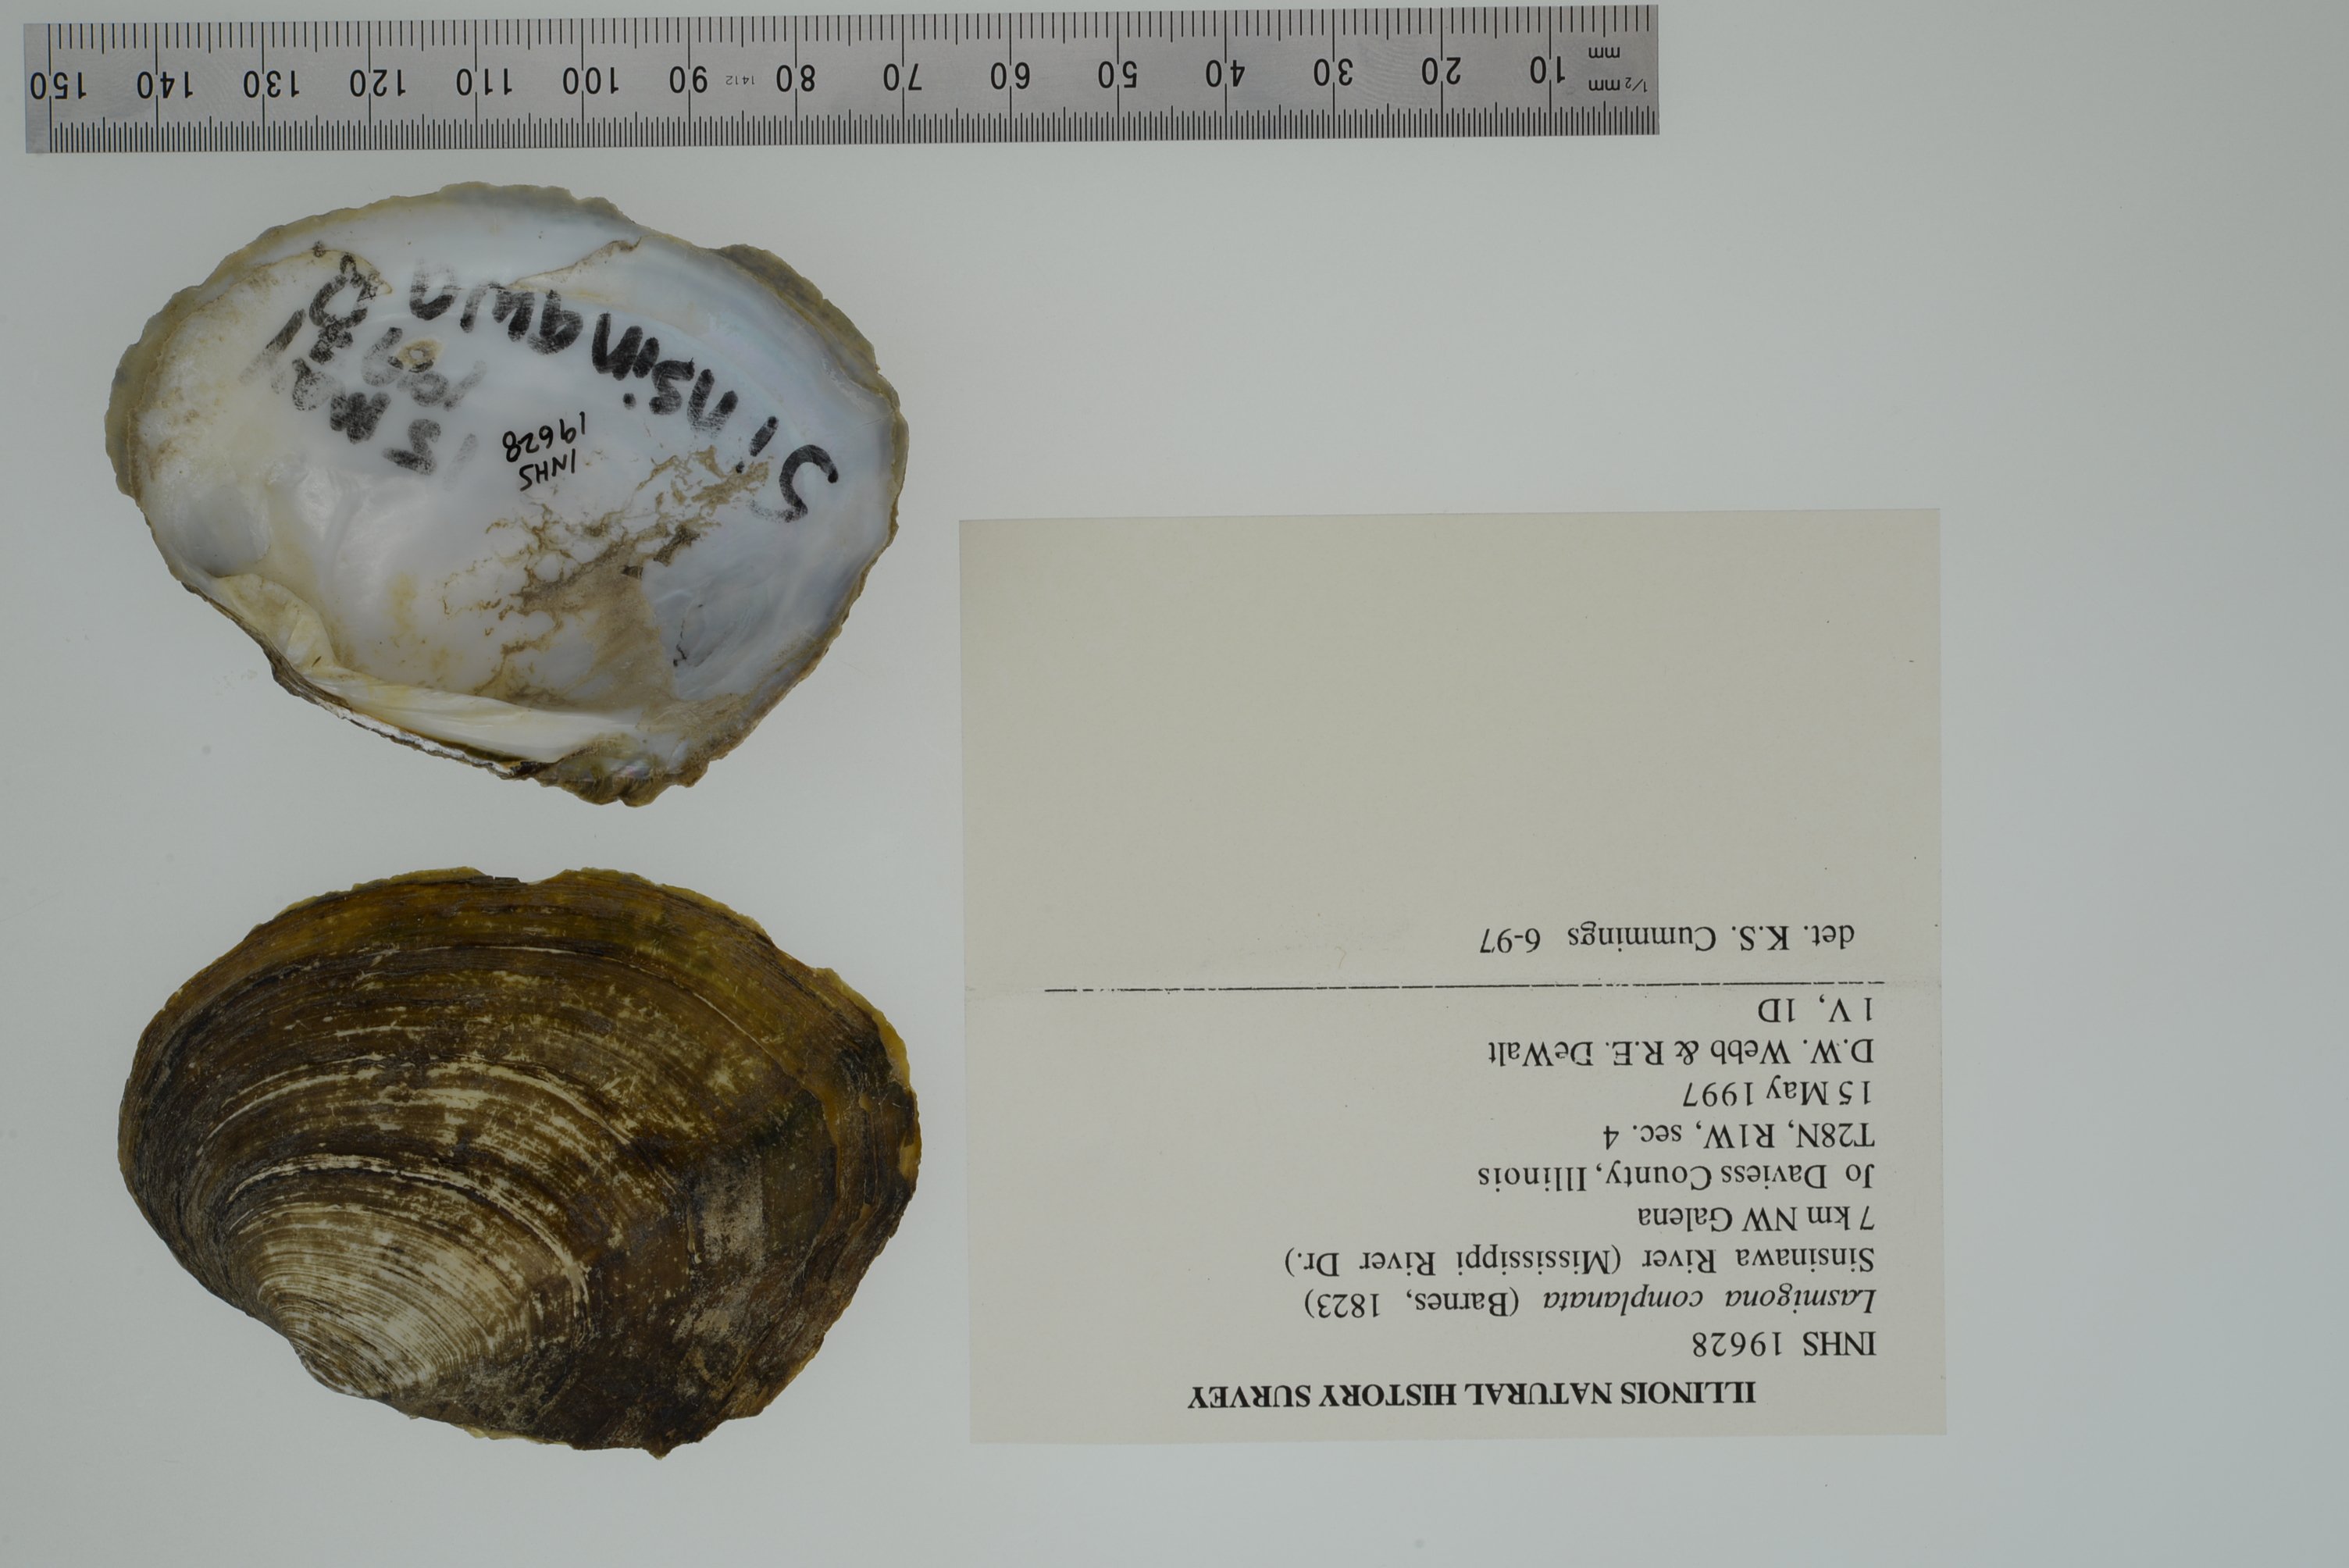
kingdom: Animalia
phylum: Mollusca
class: Bivalvia
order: Unionida
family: Unionidae
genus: Lasmigona
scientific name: Lasmigona complanata
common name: White heelsplitter
